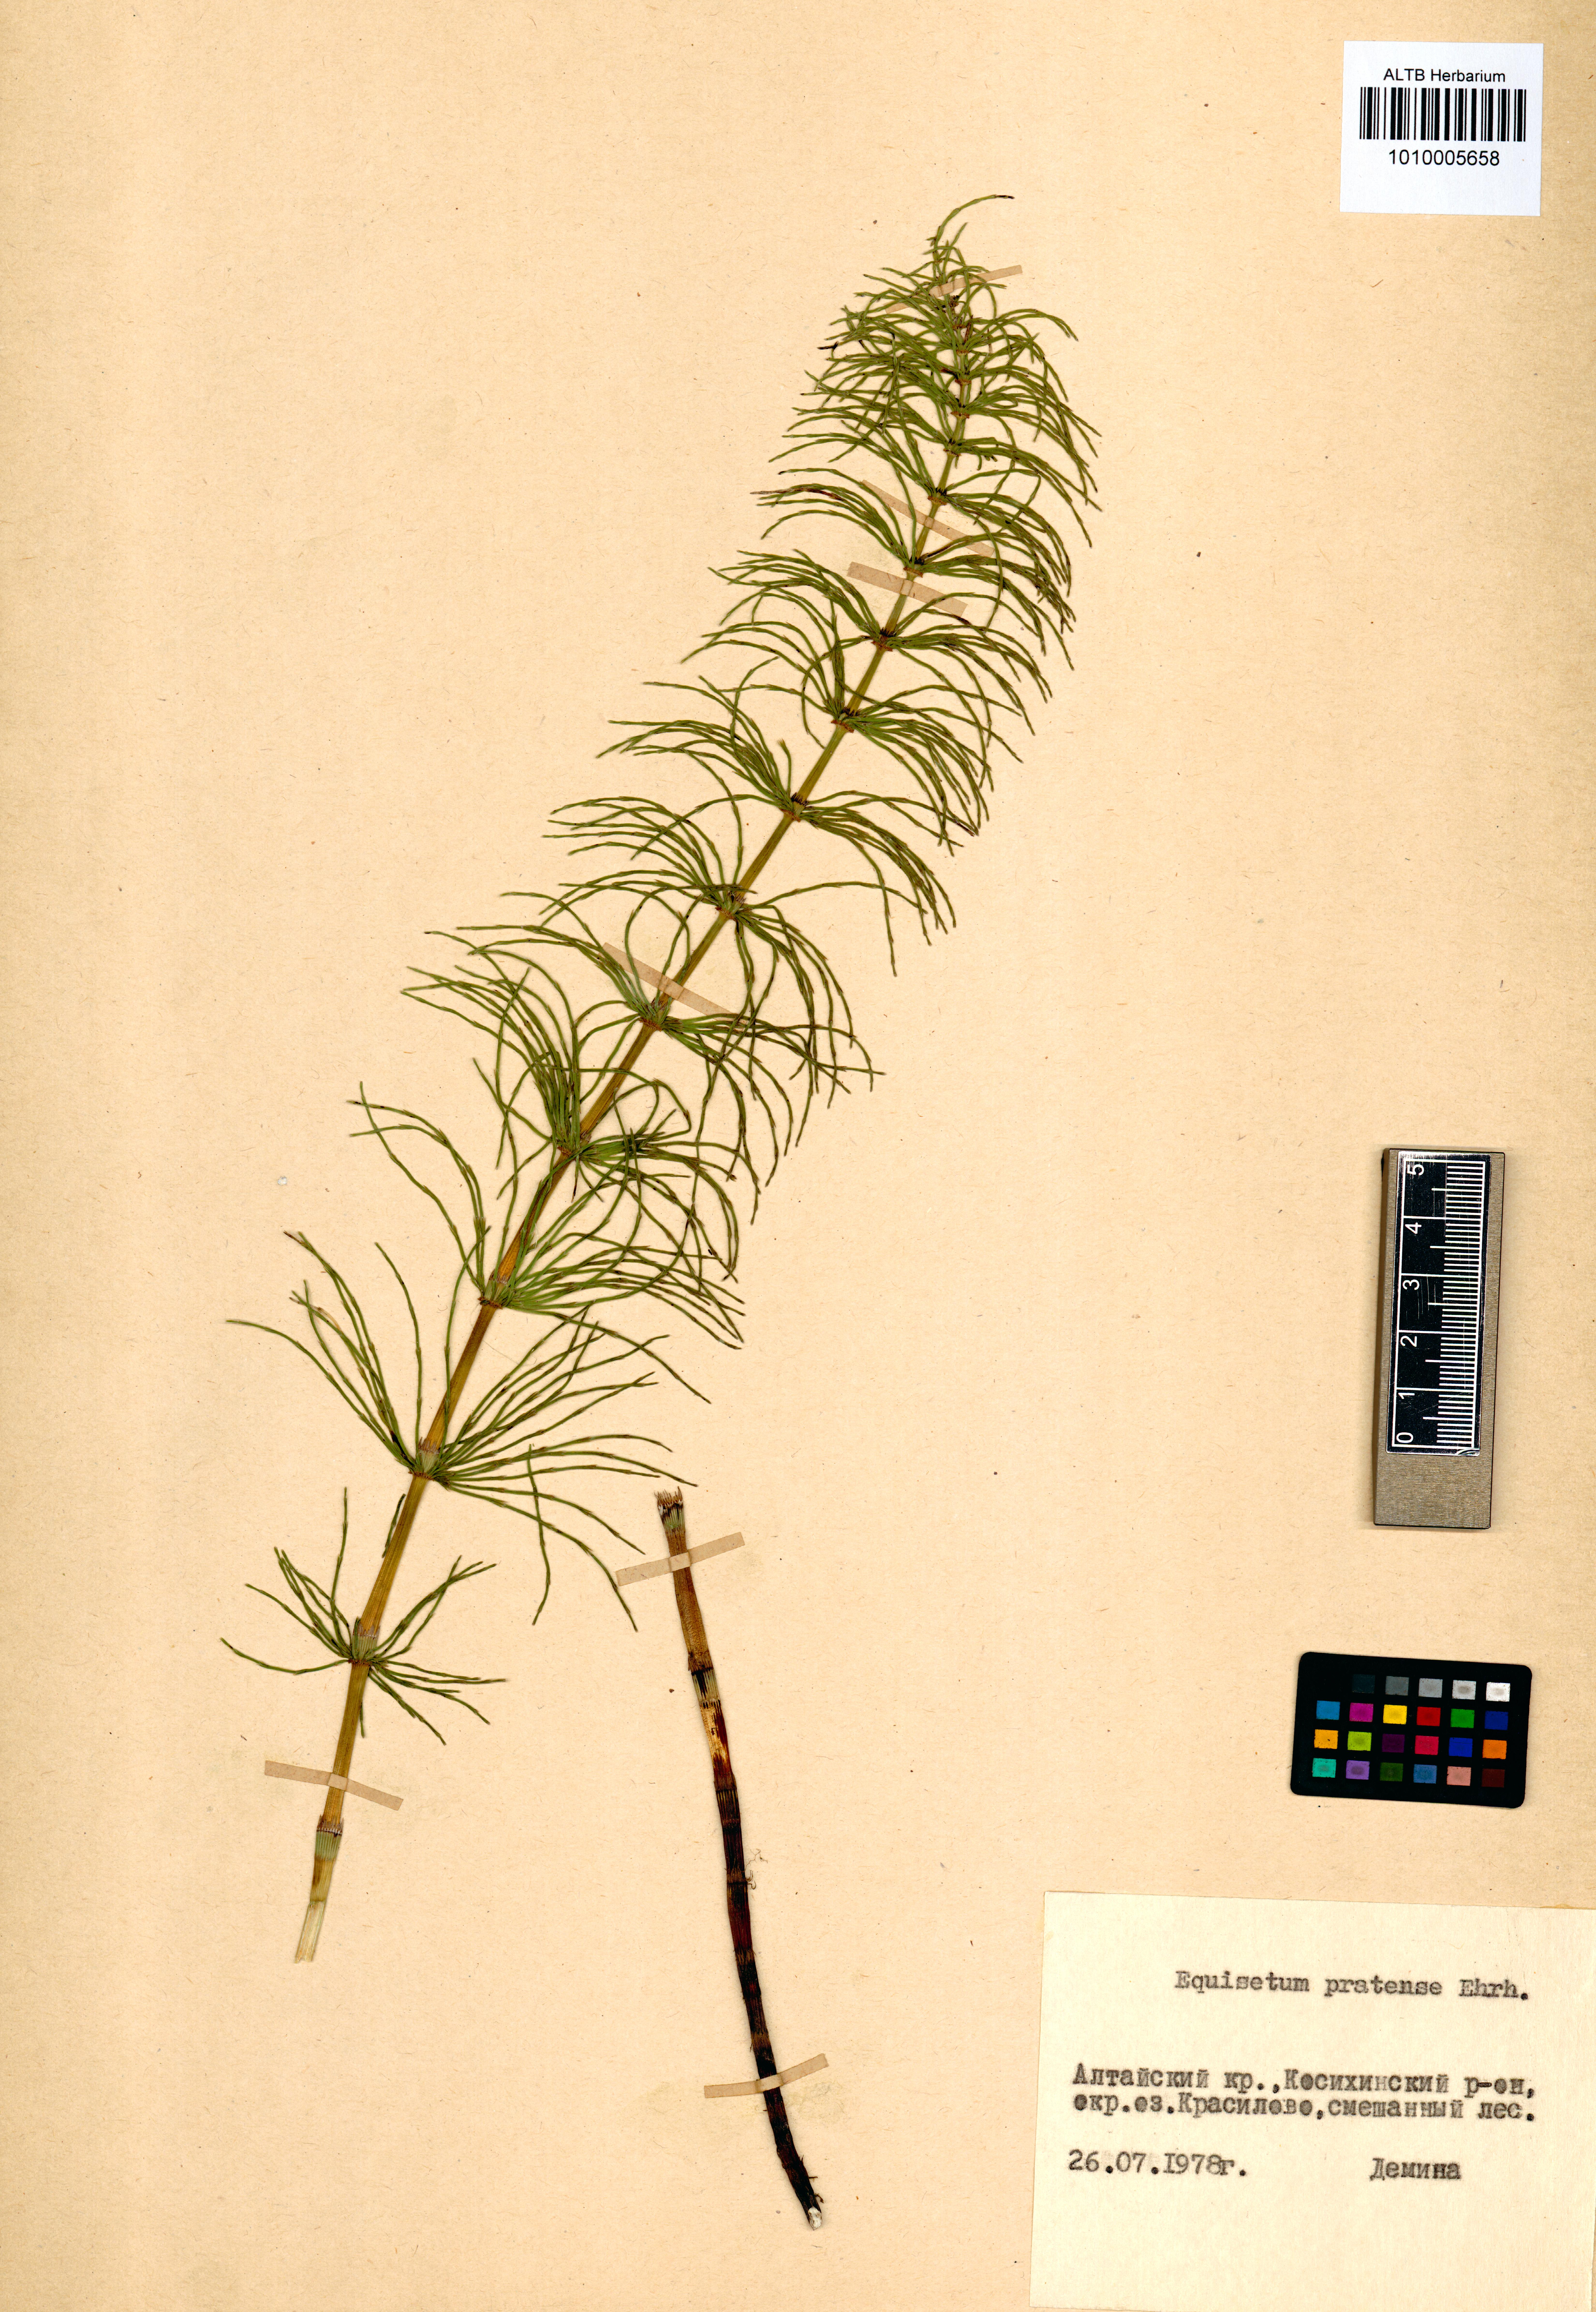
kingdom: Plantae
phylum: Tracheophyta
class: Polypodiopsida
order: Equisetales
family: Equisetaceae
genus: Equisetum
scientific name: Equisetum pratense
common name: Meadow horsetail
